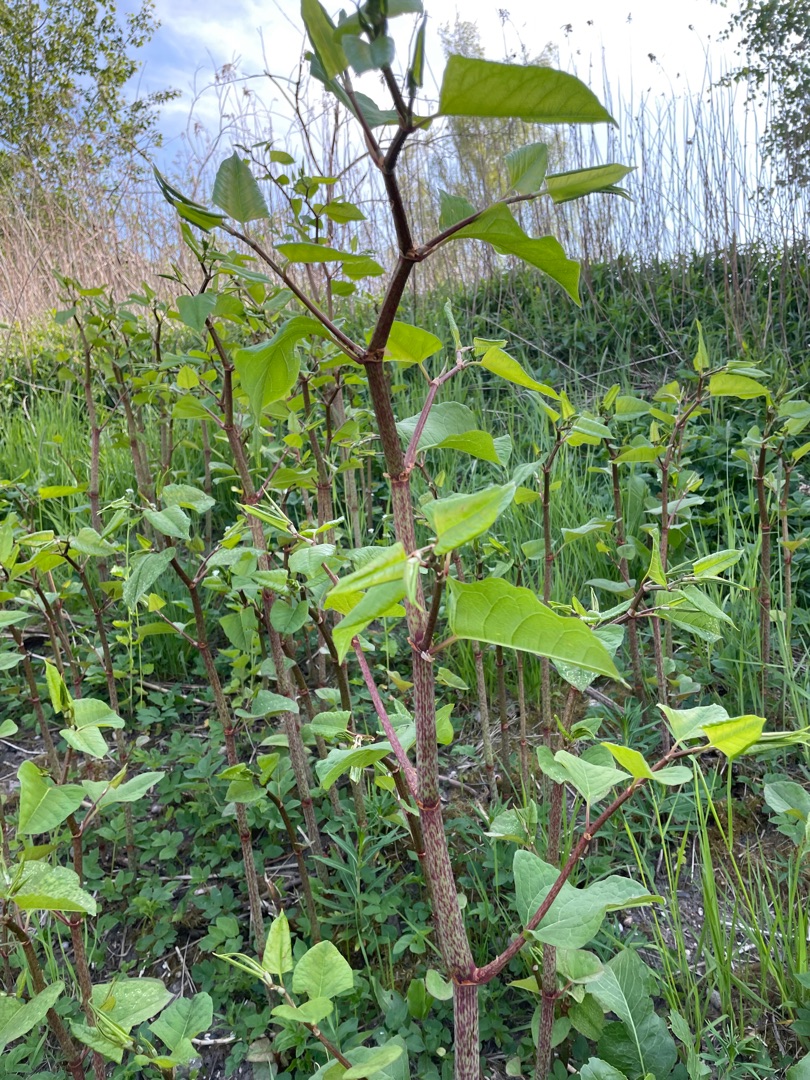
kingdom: Plantae
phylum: Tracheophyta
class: Magnoliopsida
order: Caryophyllales
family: Polygonaceae
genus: Reynoutria
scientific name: Reynoutria japonica
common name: Japan-pileurt
